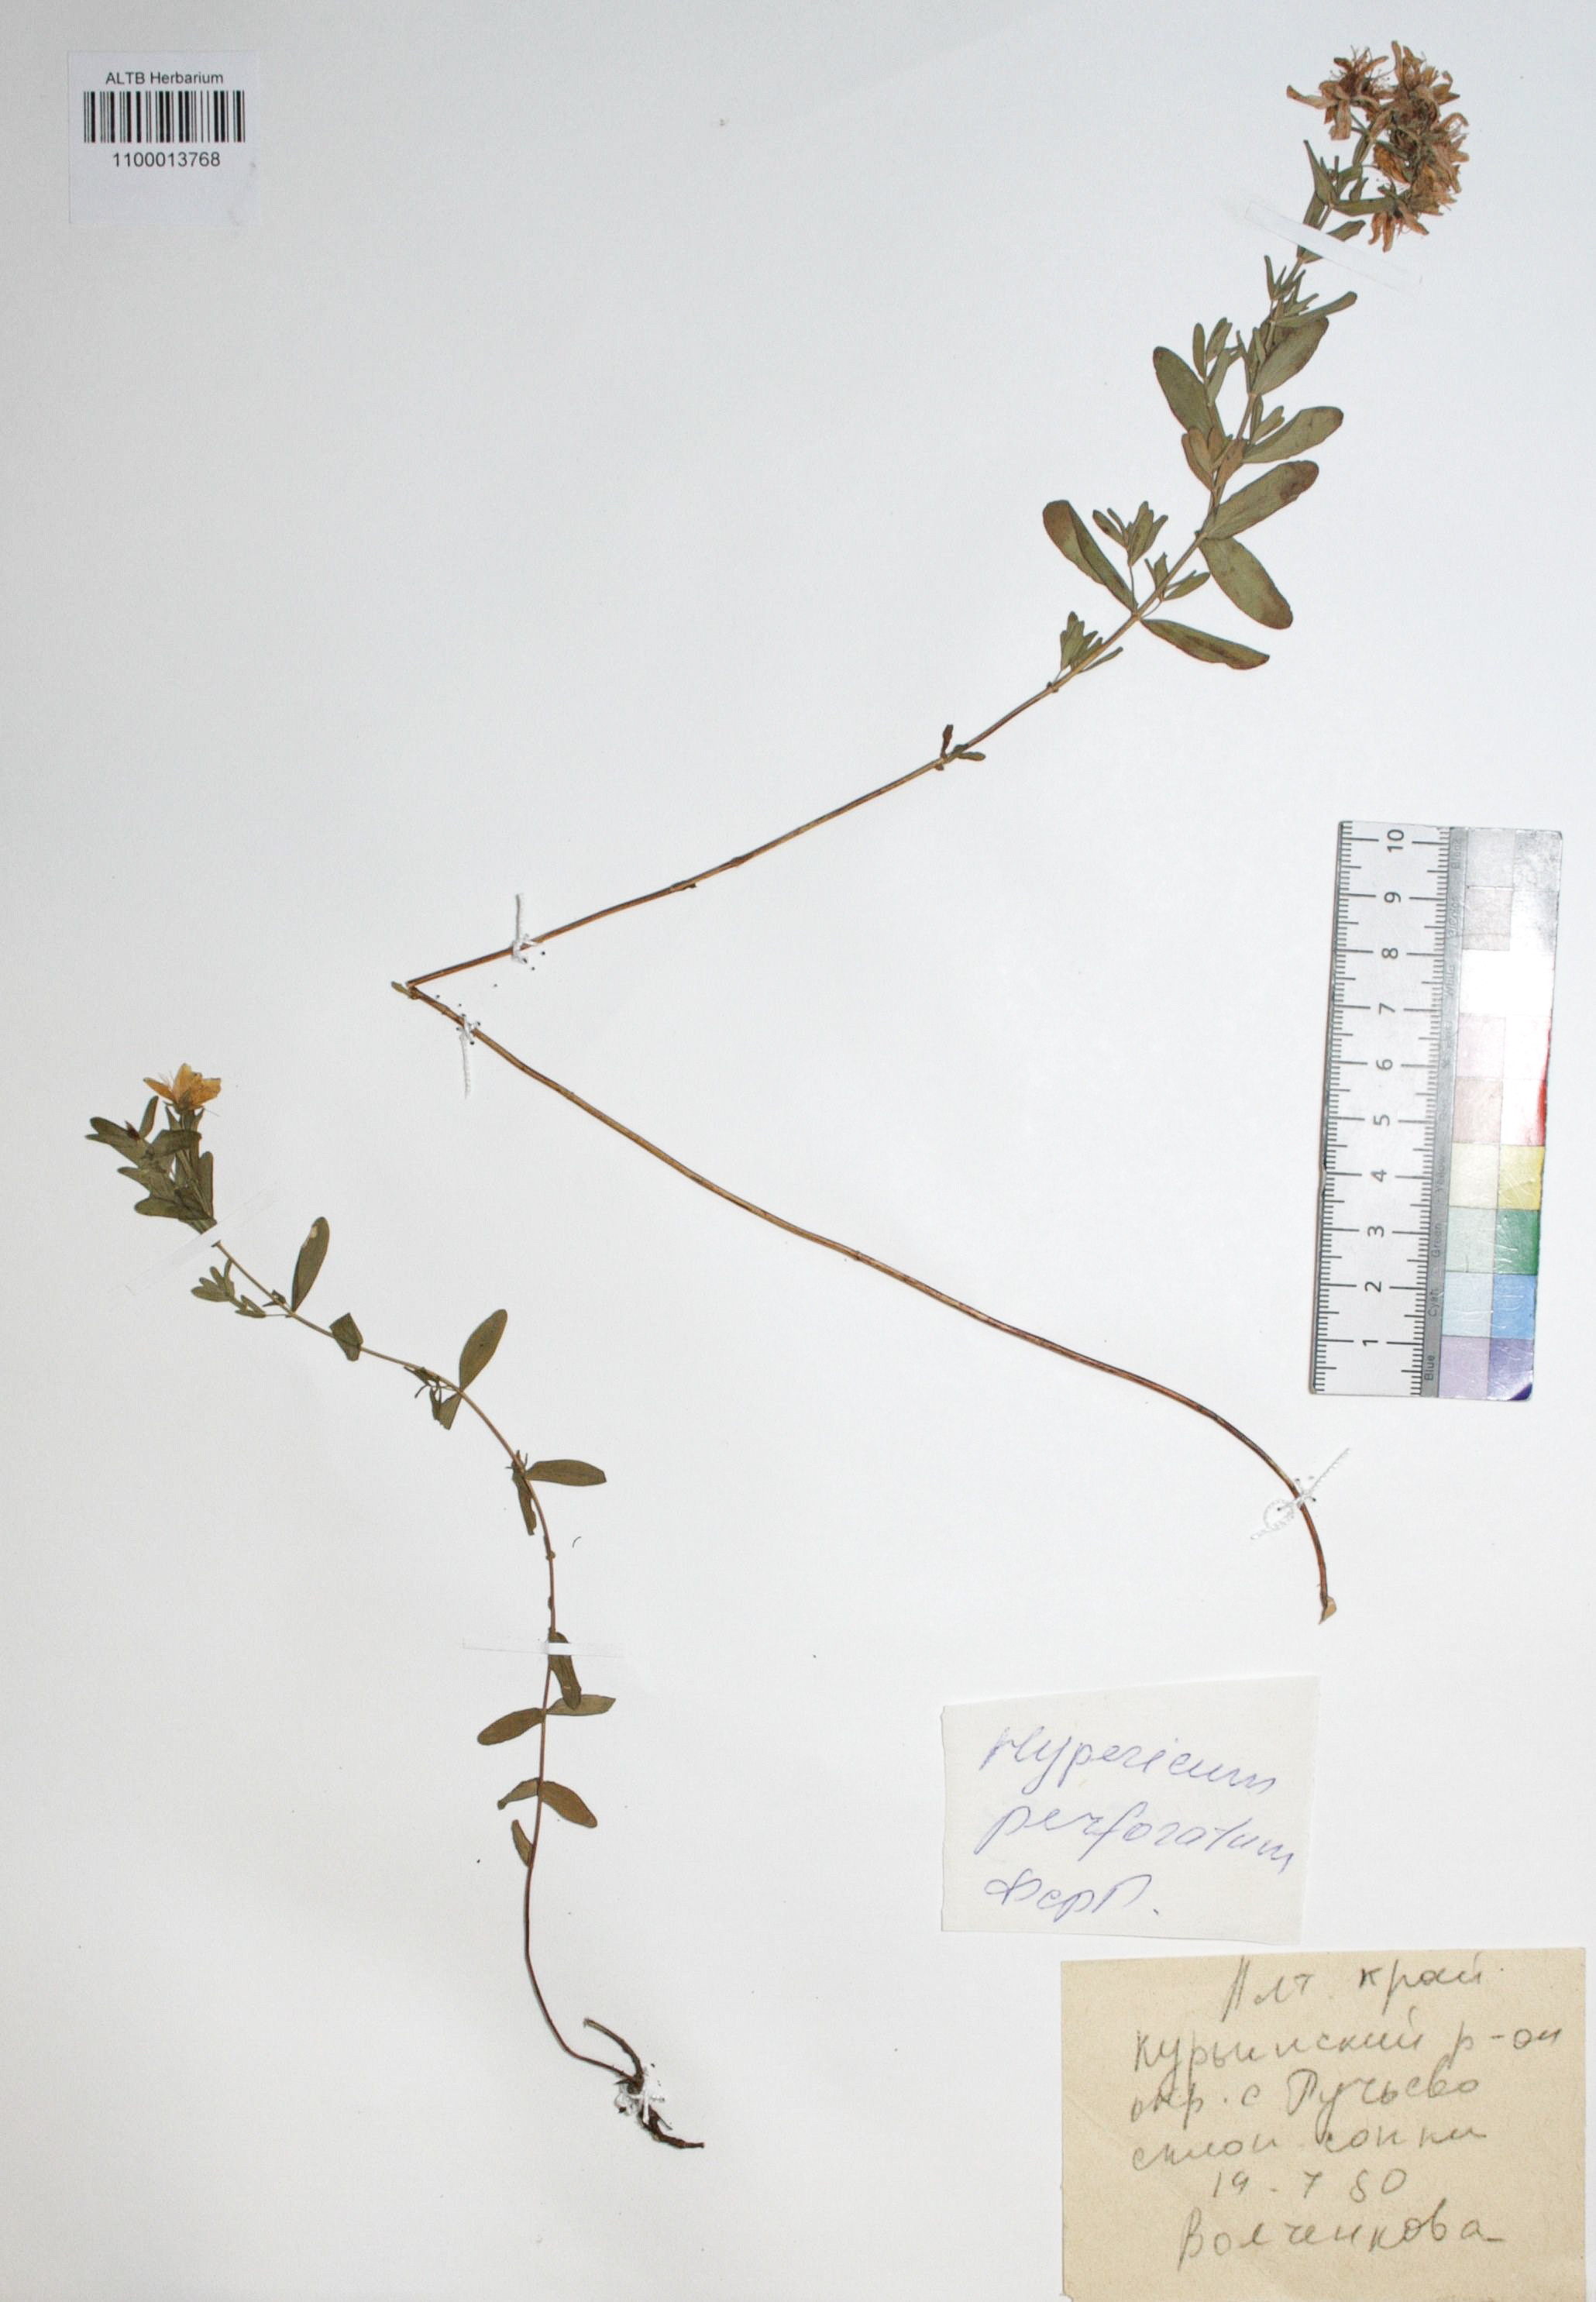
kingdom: Plantae
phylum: Tracheophyta
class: Magnoliopsida
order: Malpighiales
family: Hypericaceae
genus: Hypericum
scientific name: Hypericum perforatum
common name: Common st. johnswort
